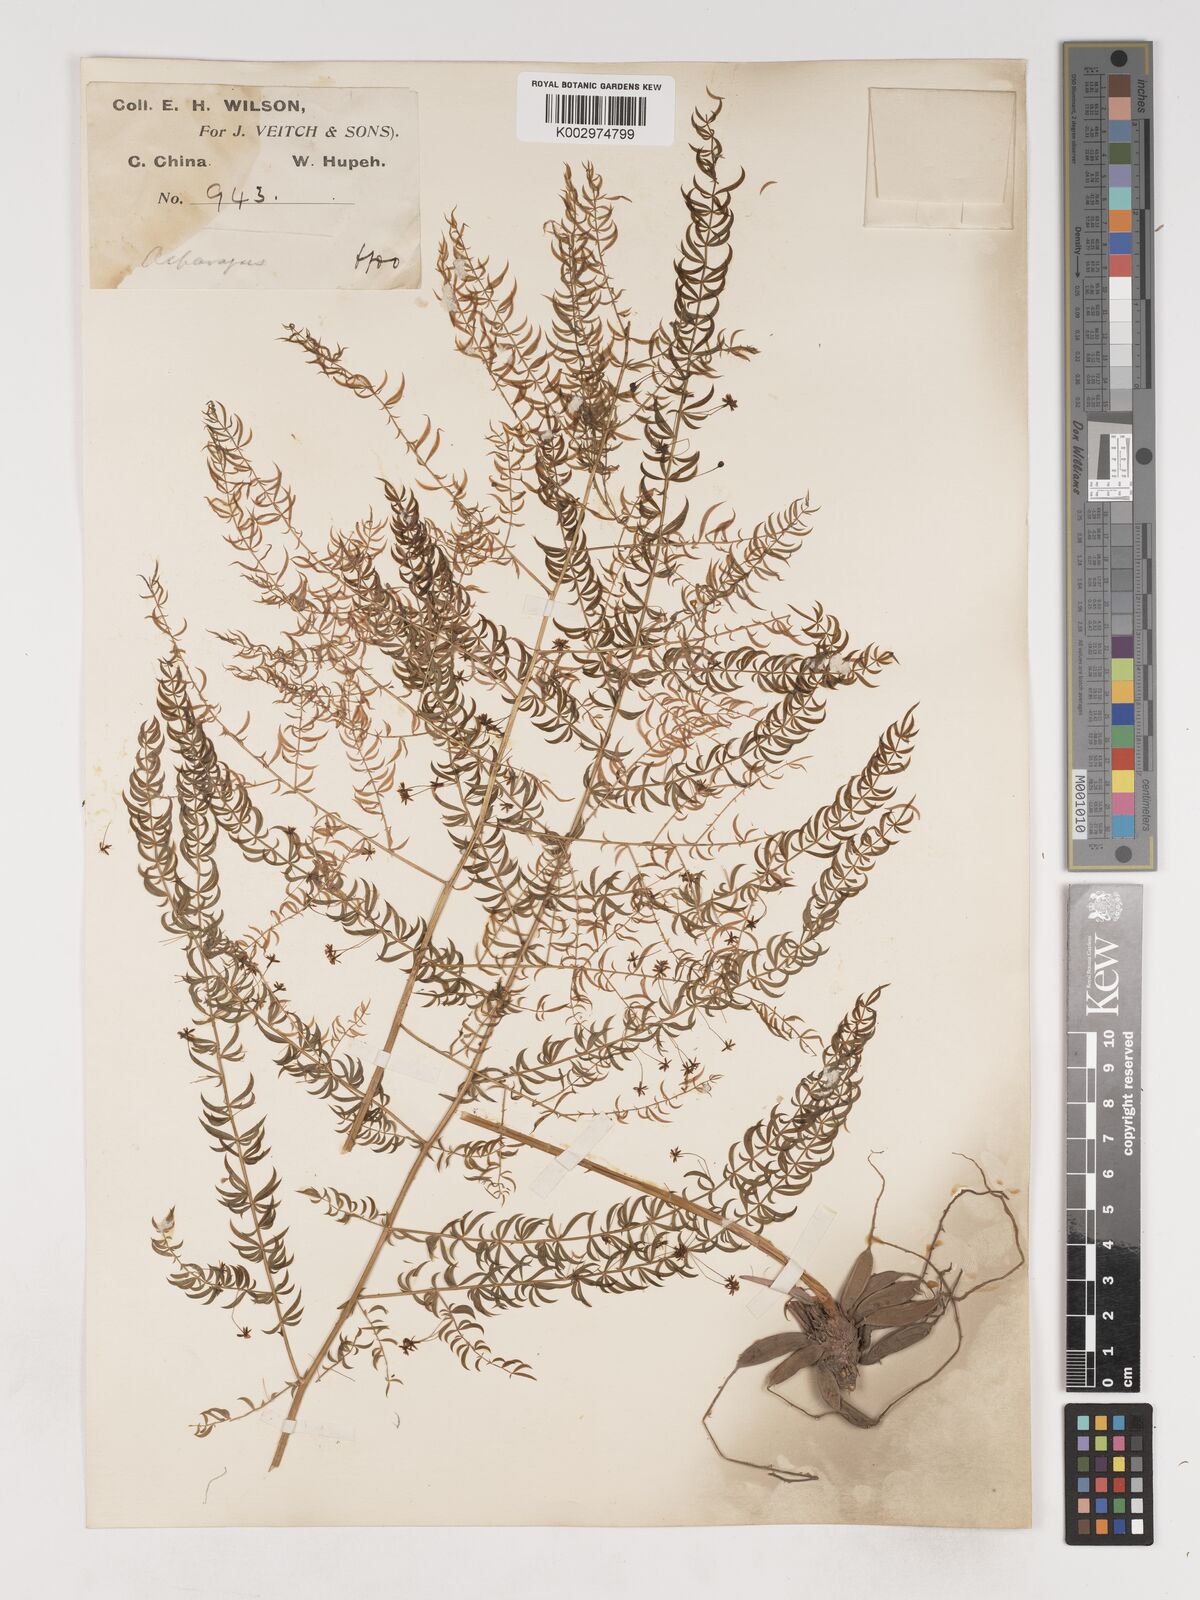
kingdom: Plantae
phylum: Tracheophyta
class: Liliopsida
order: Asparagales
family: Asparagaceae
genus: Asparagus
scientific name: Asparagus filicinus
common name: Fern asparagus
